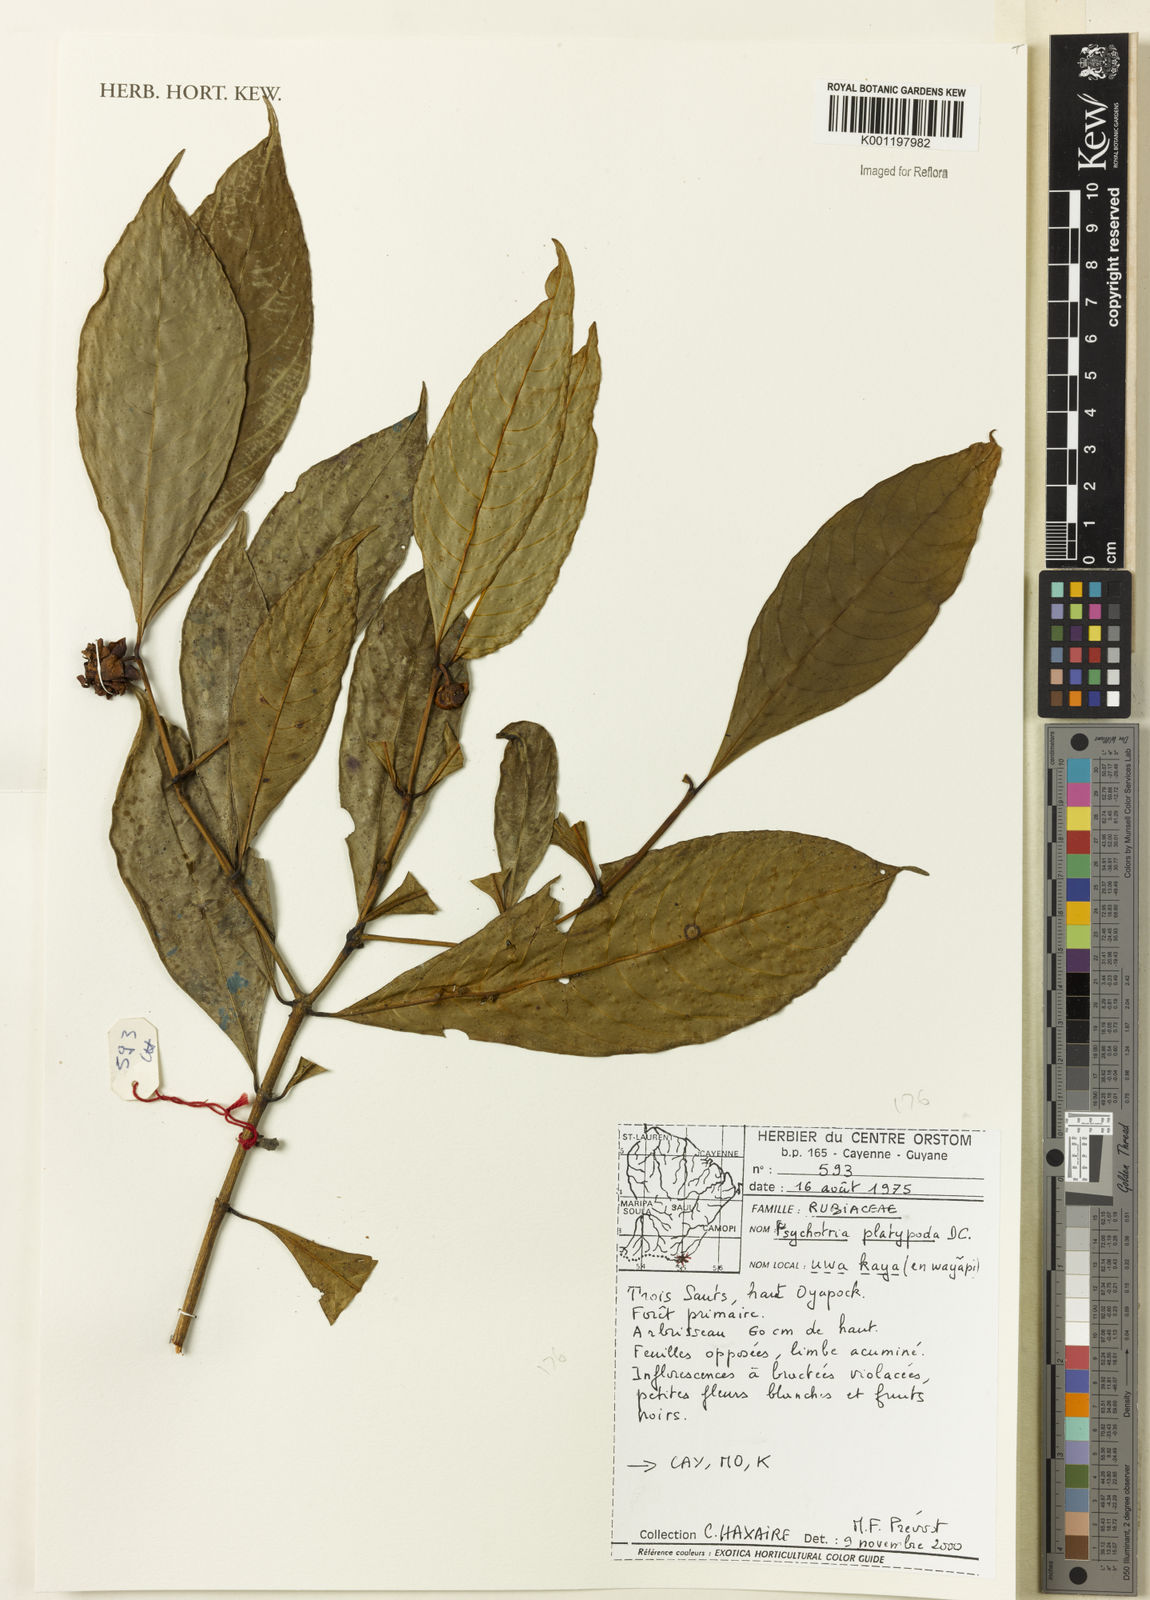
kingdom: Plantae
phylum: Tracheophyta
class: Magnoliopsida
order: Gentianales
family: Rubiaceae
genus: Palicourea
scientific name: Palicourea dichotoma
